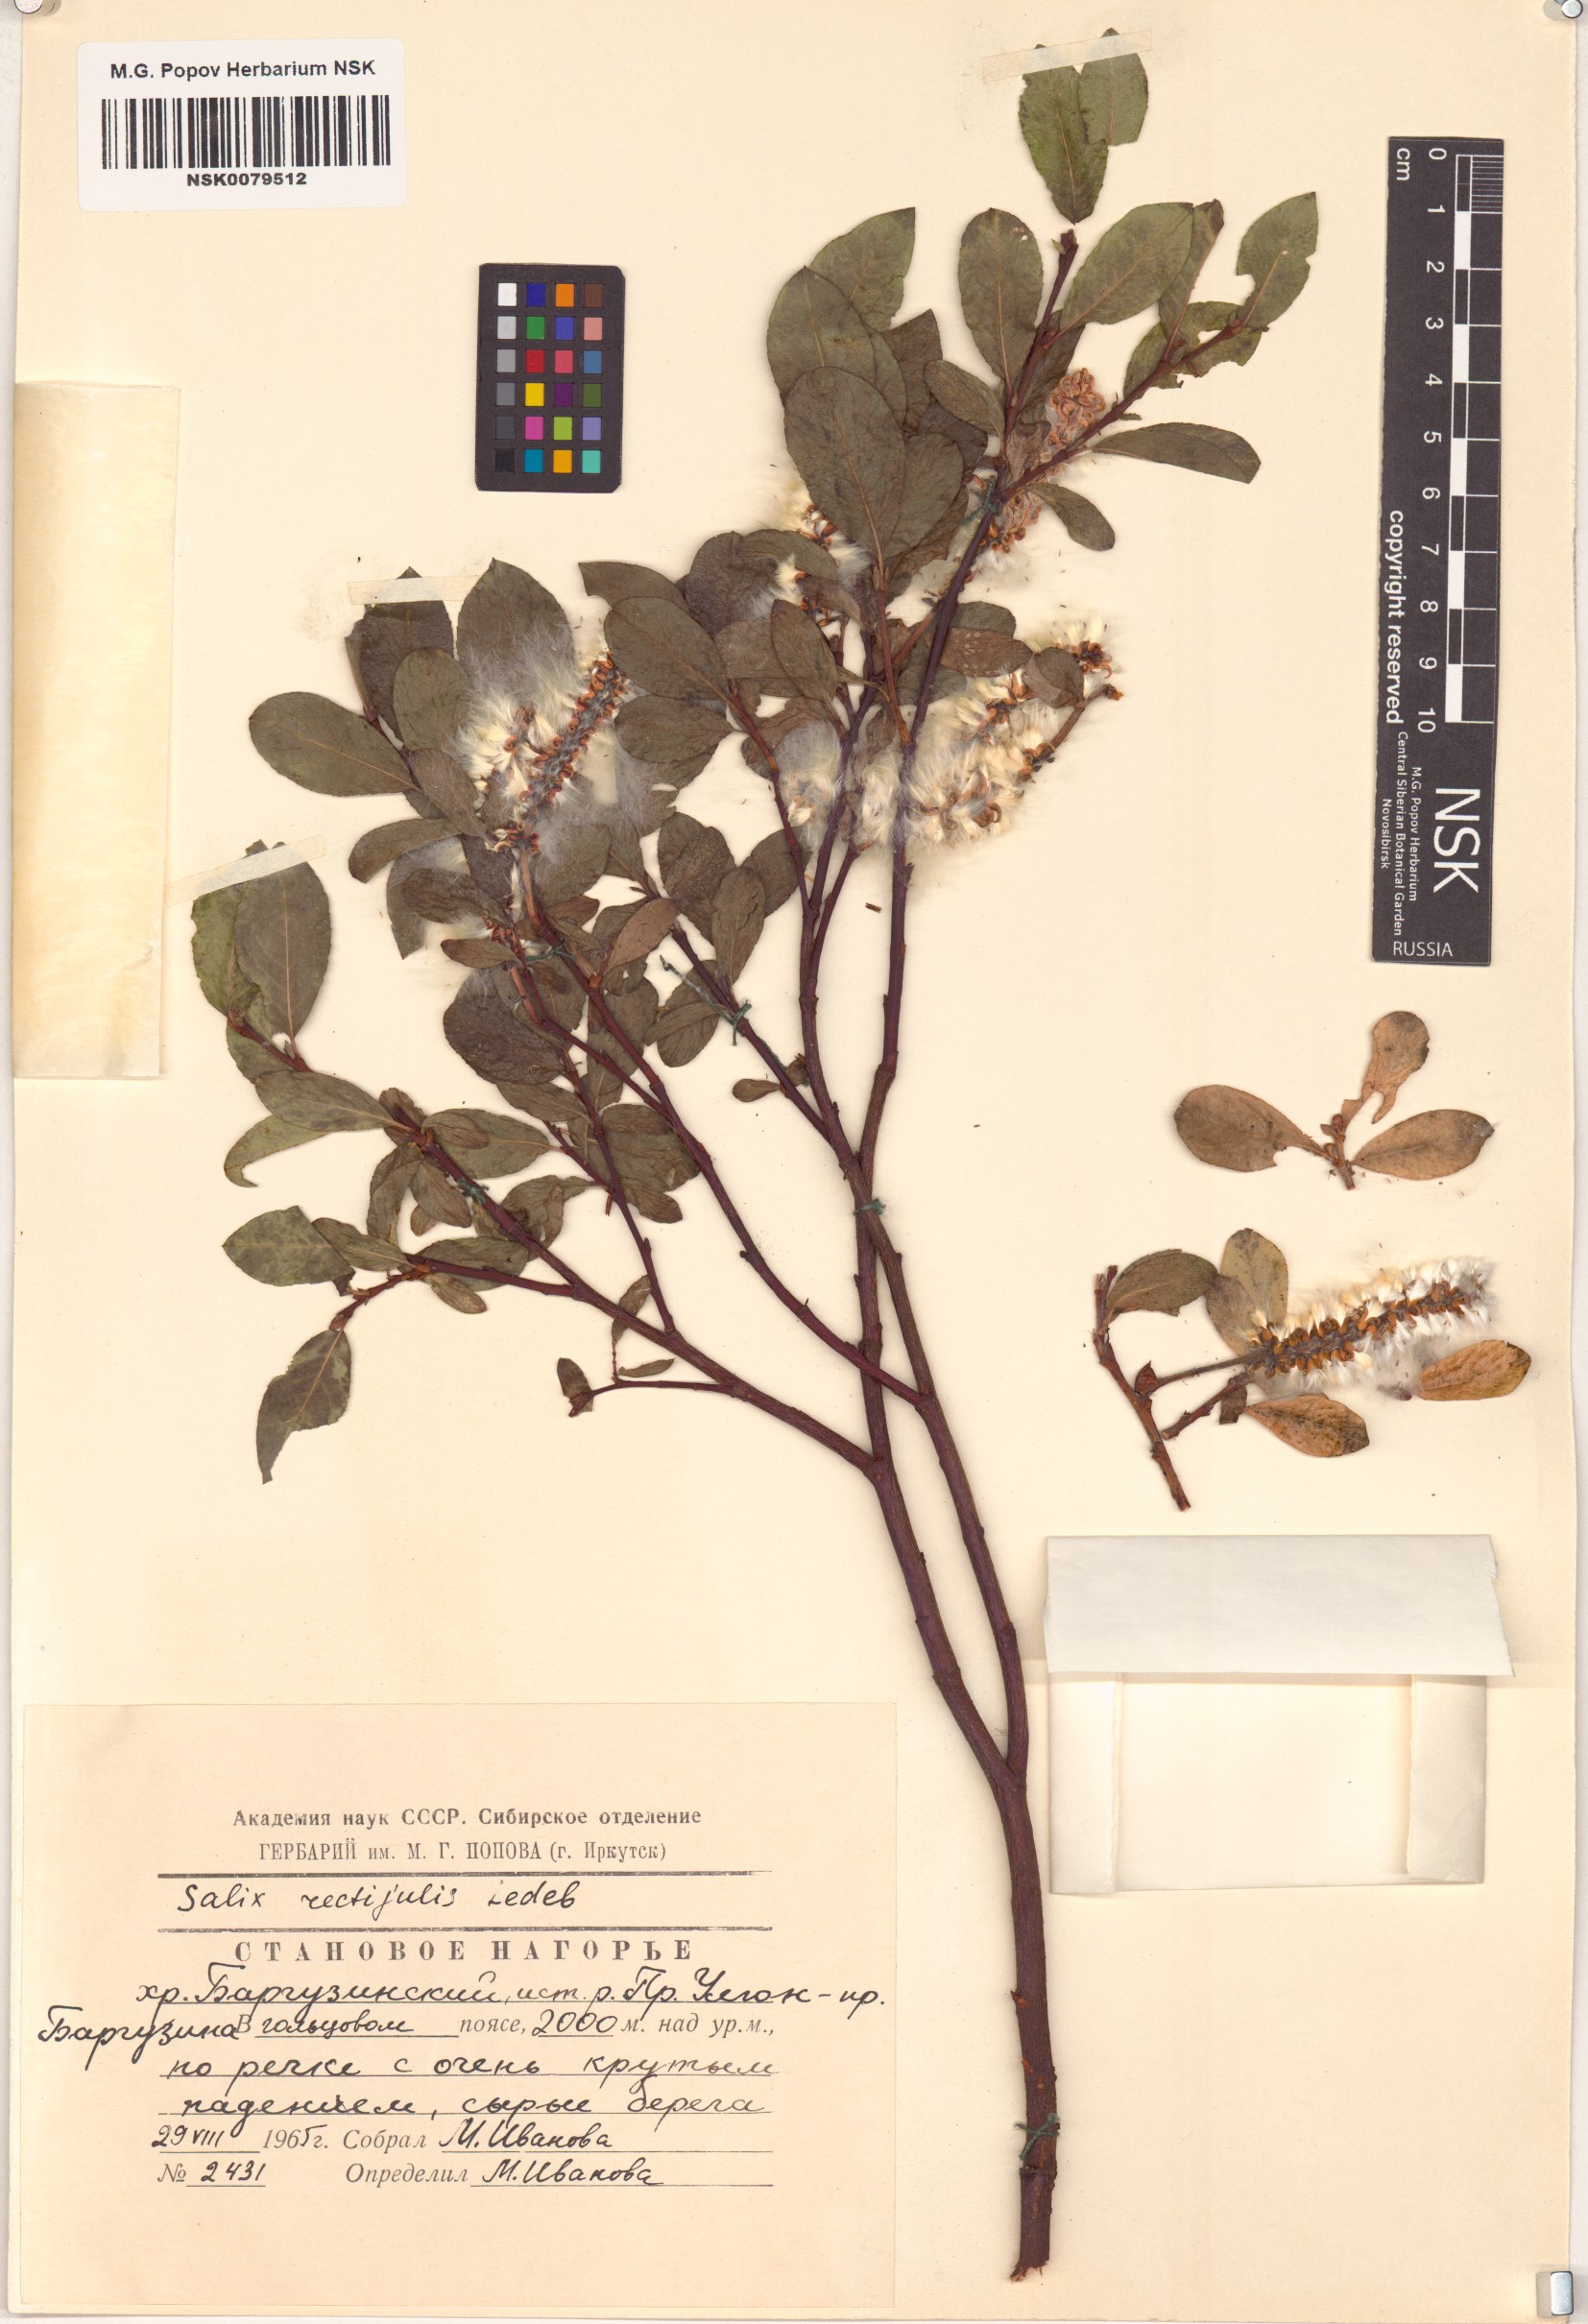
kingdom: Plantae
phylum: Tracheophyta
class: Magnoliopsida
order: Malpighiales
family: Salicaceae
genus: Salix
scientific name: Salix rectijulis
